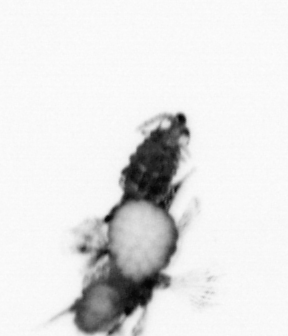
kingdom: Animalia
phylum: Annelida
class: Polychaeta
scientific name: Polychaeta
